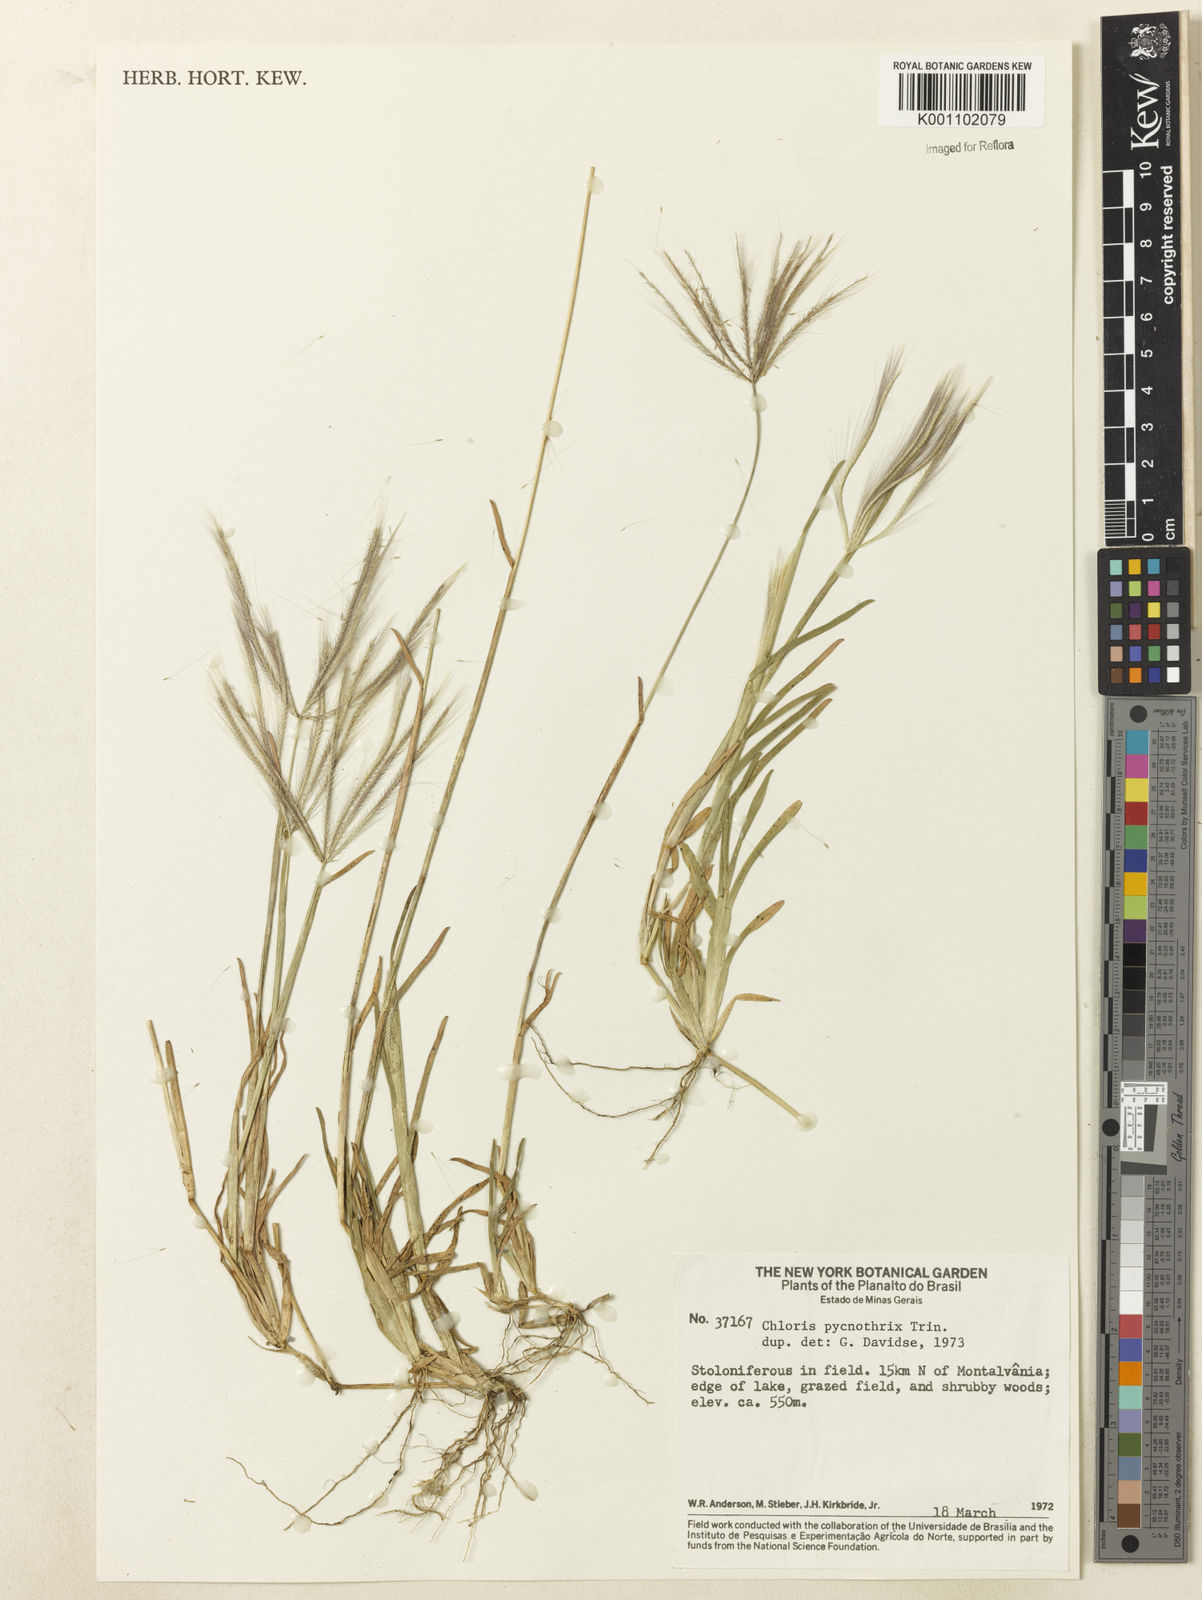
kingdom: Plantae
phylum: Tracheophyta
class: Liliopsida
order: Poales
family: Poaceae
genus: Chloris
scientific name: Chloris pycnothrix
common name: Spiderweb chloris
